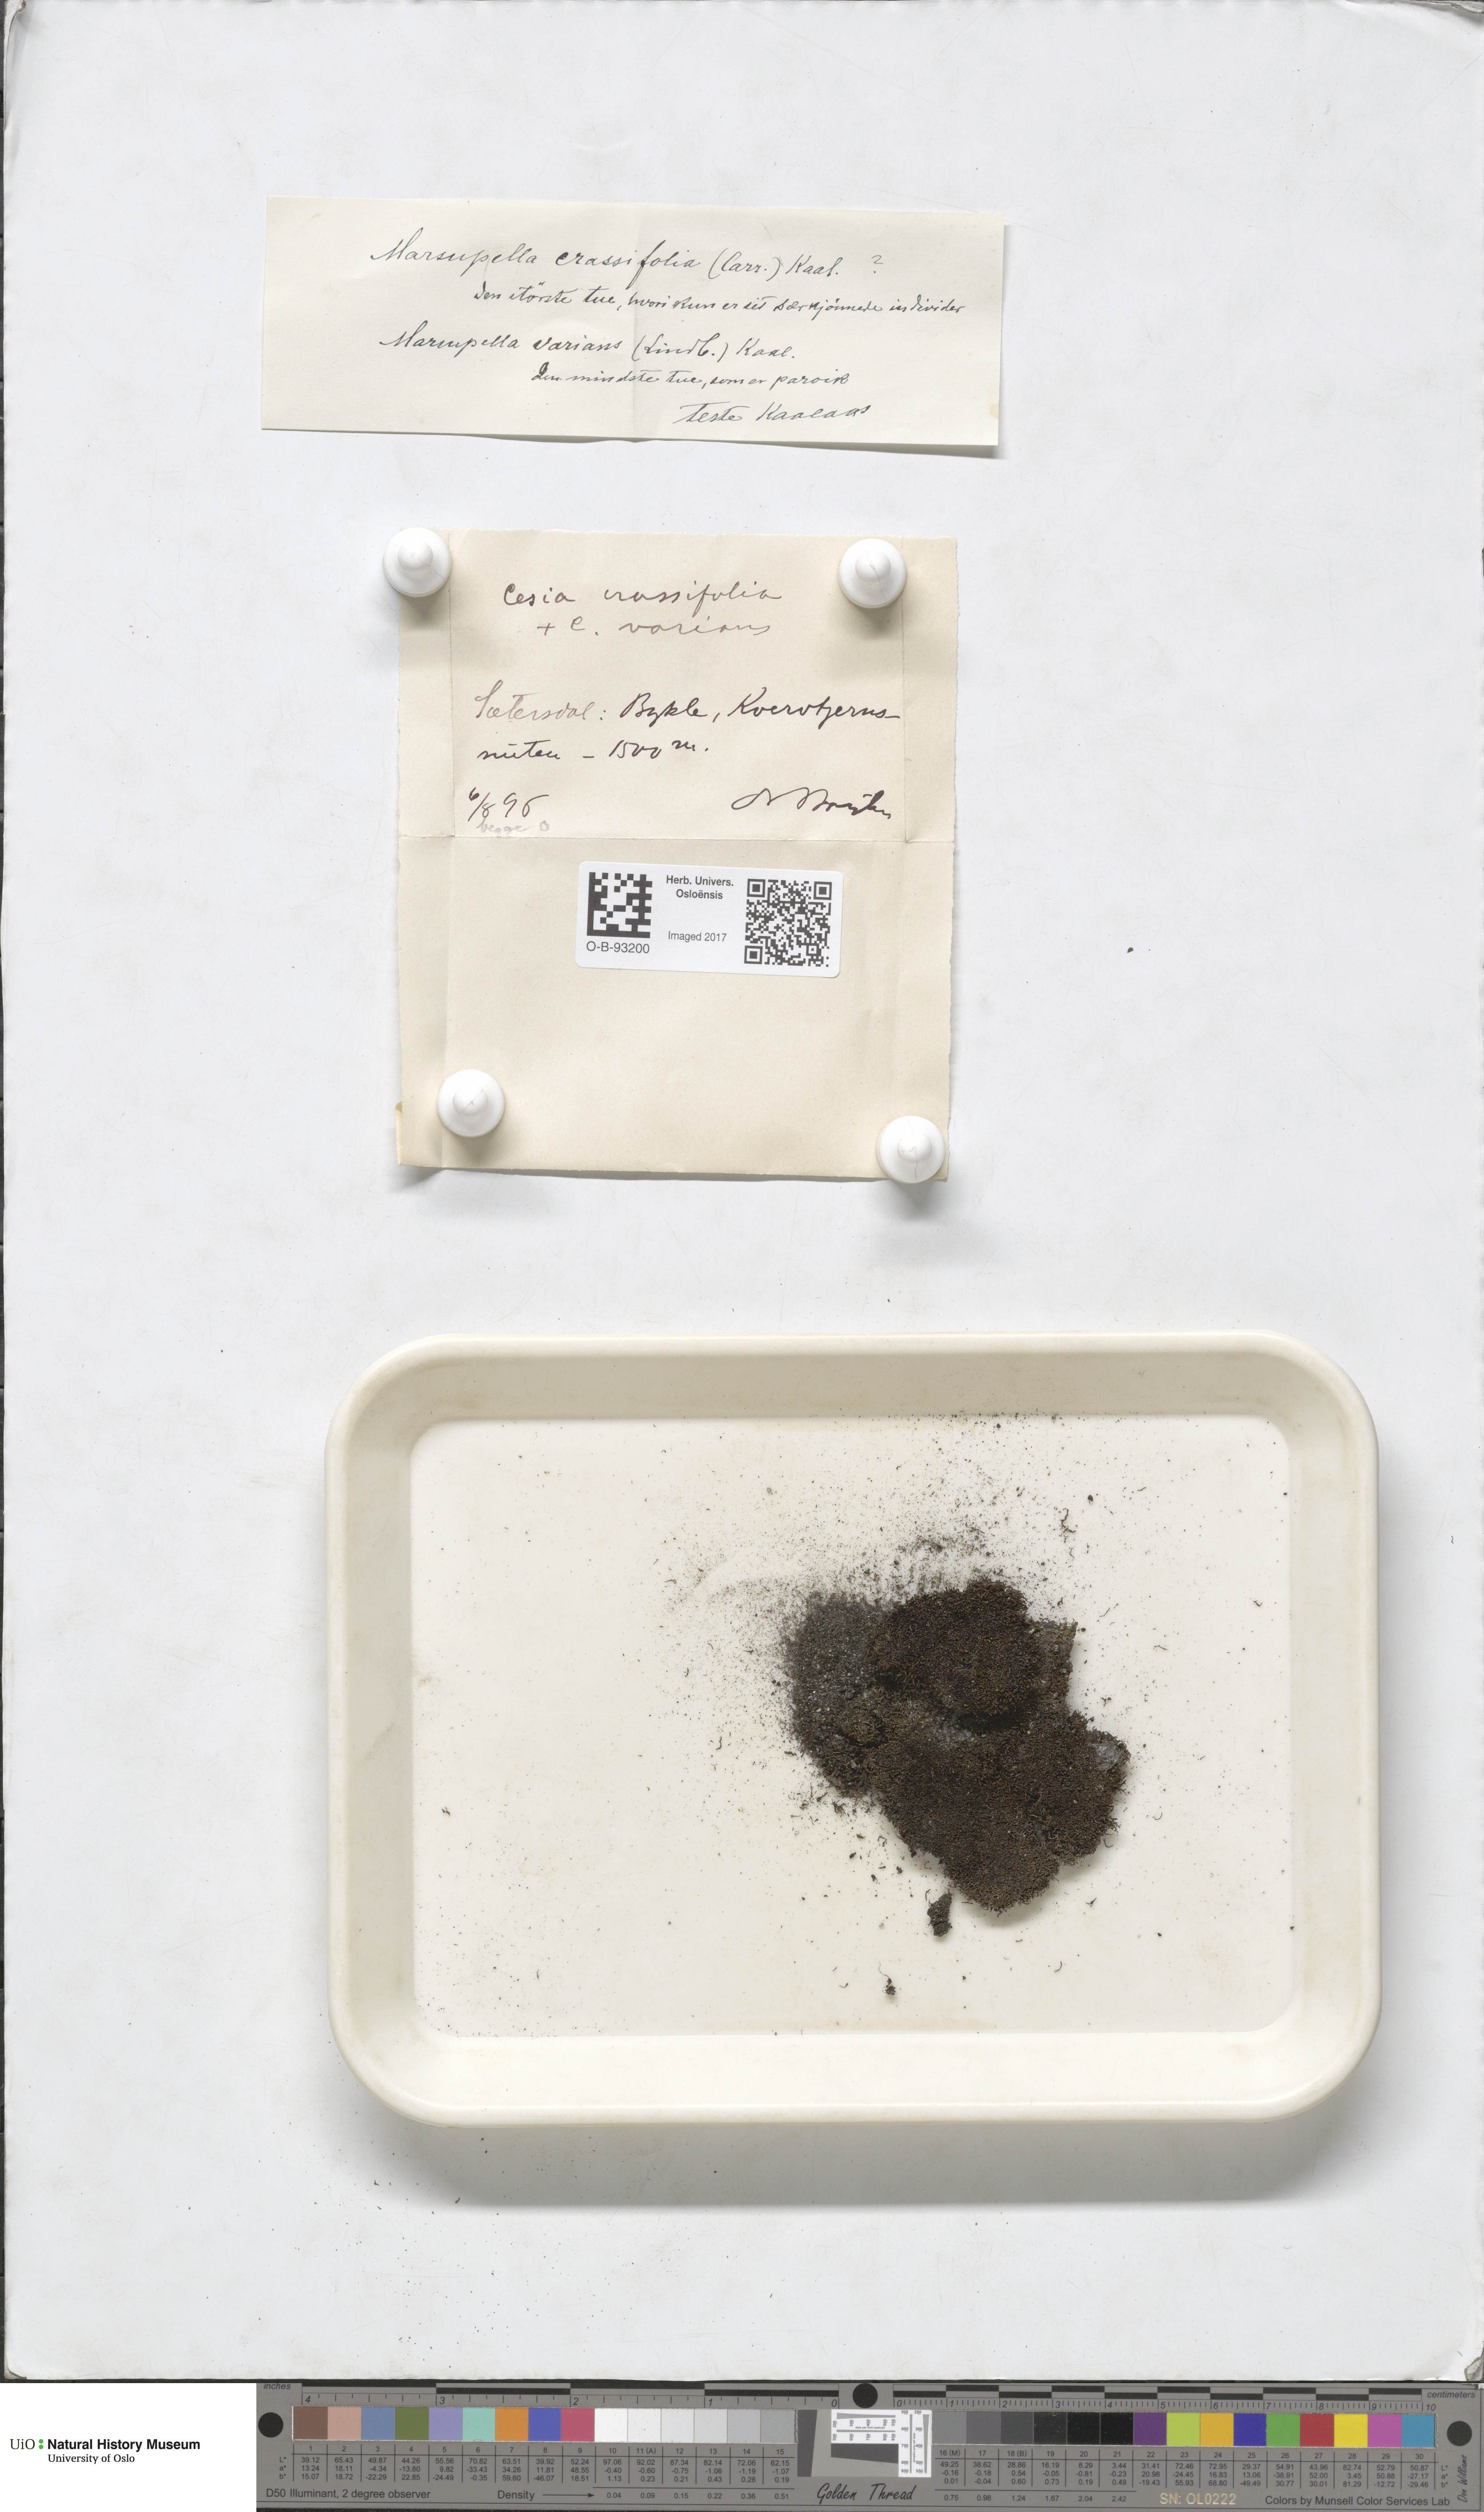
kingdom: Plantae
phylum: Marchantiophyta
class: Jungermanniopsida
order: Jungermanniales
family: Gymnomitriaceae
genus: Gymnomitrion
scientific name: Gymnomitrion brevissimum
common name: Snow rustwort
